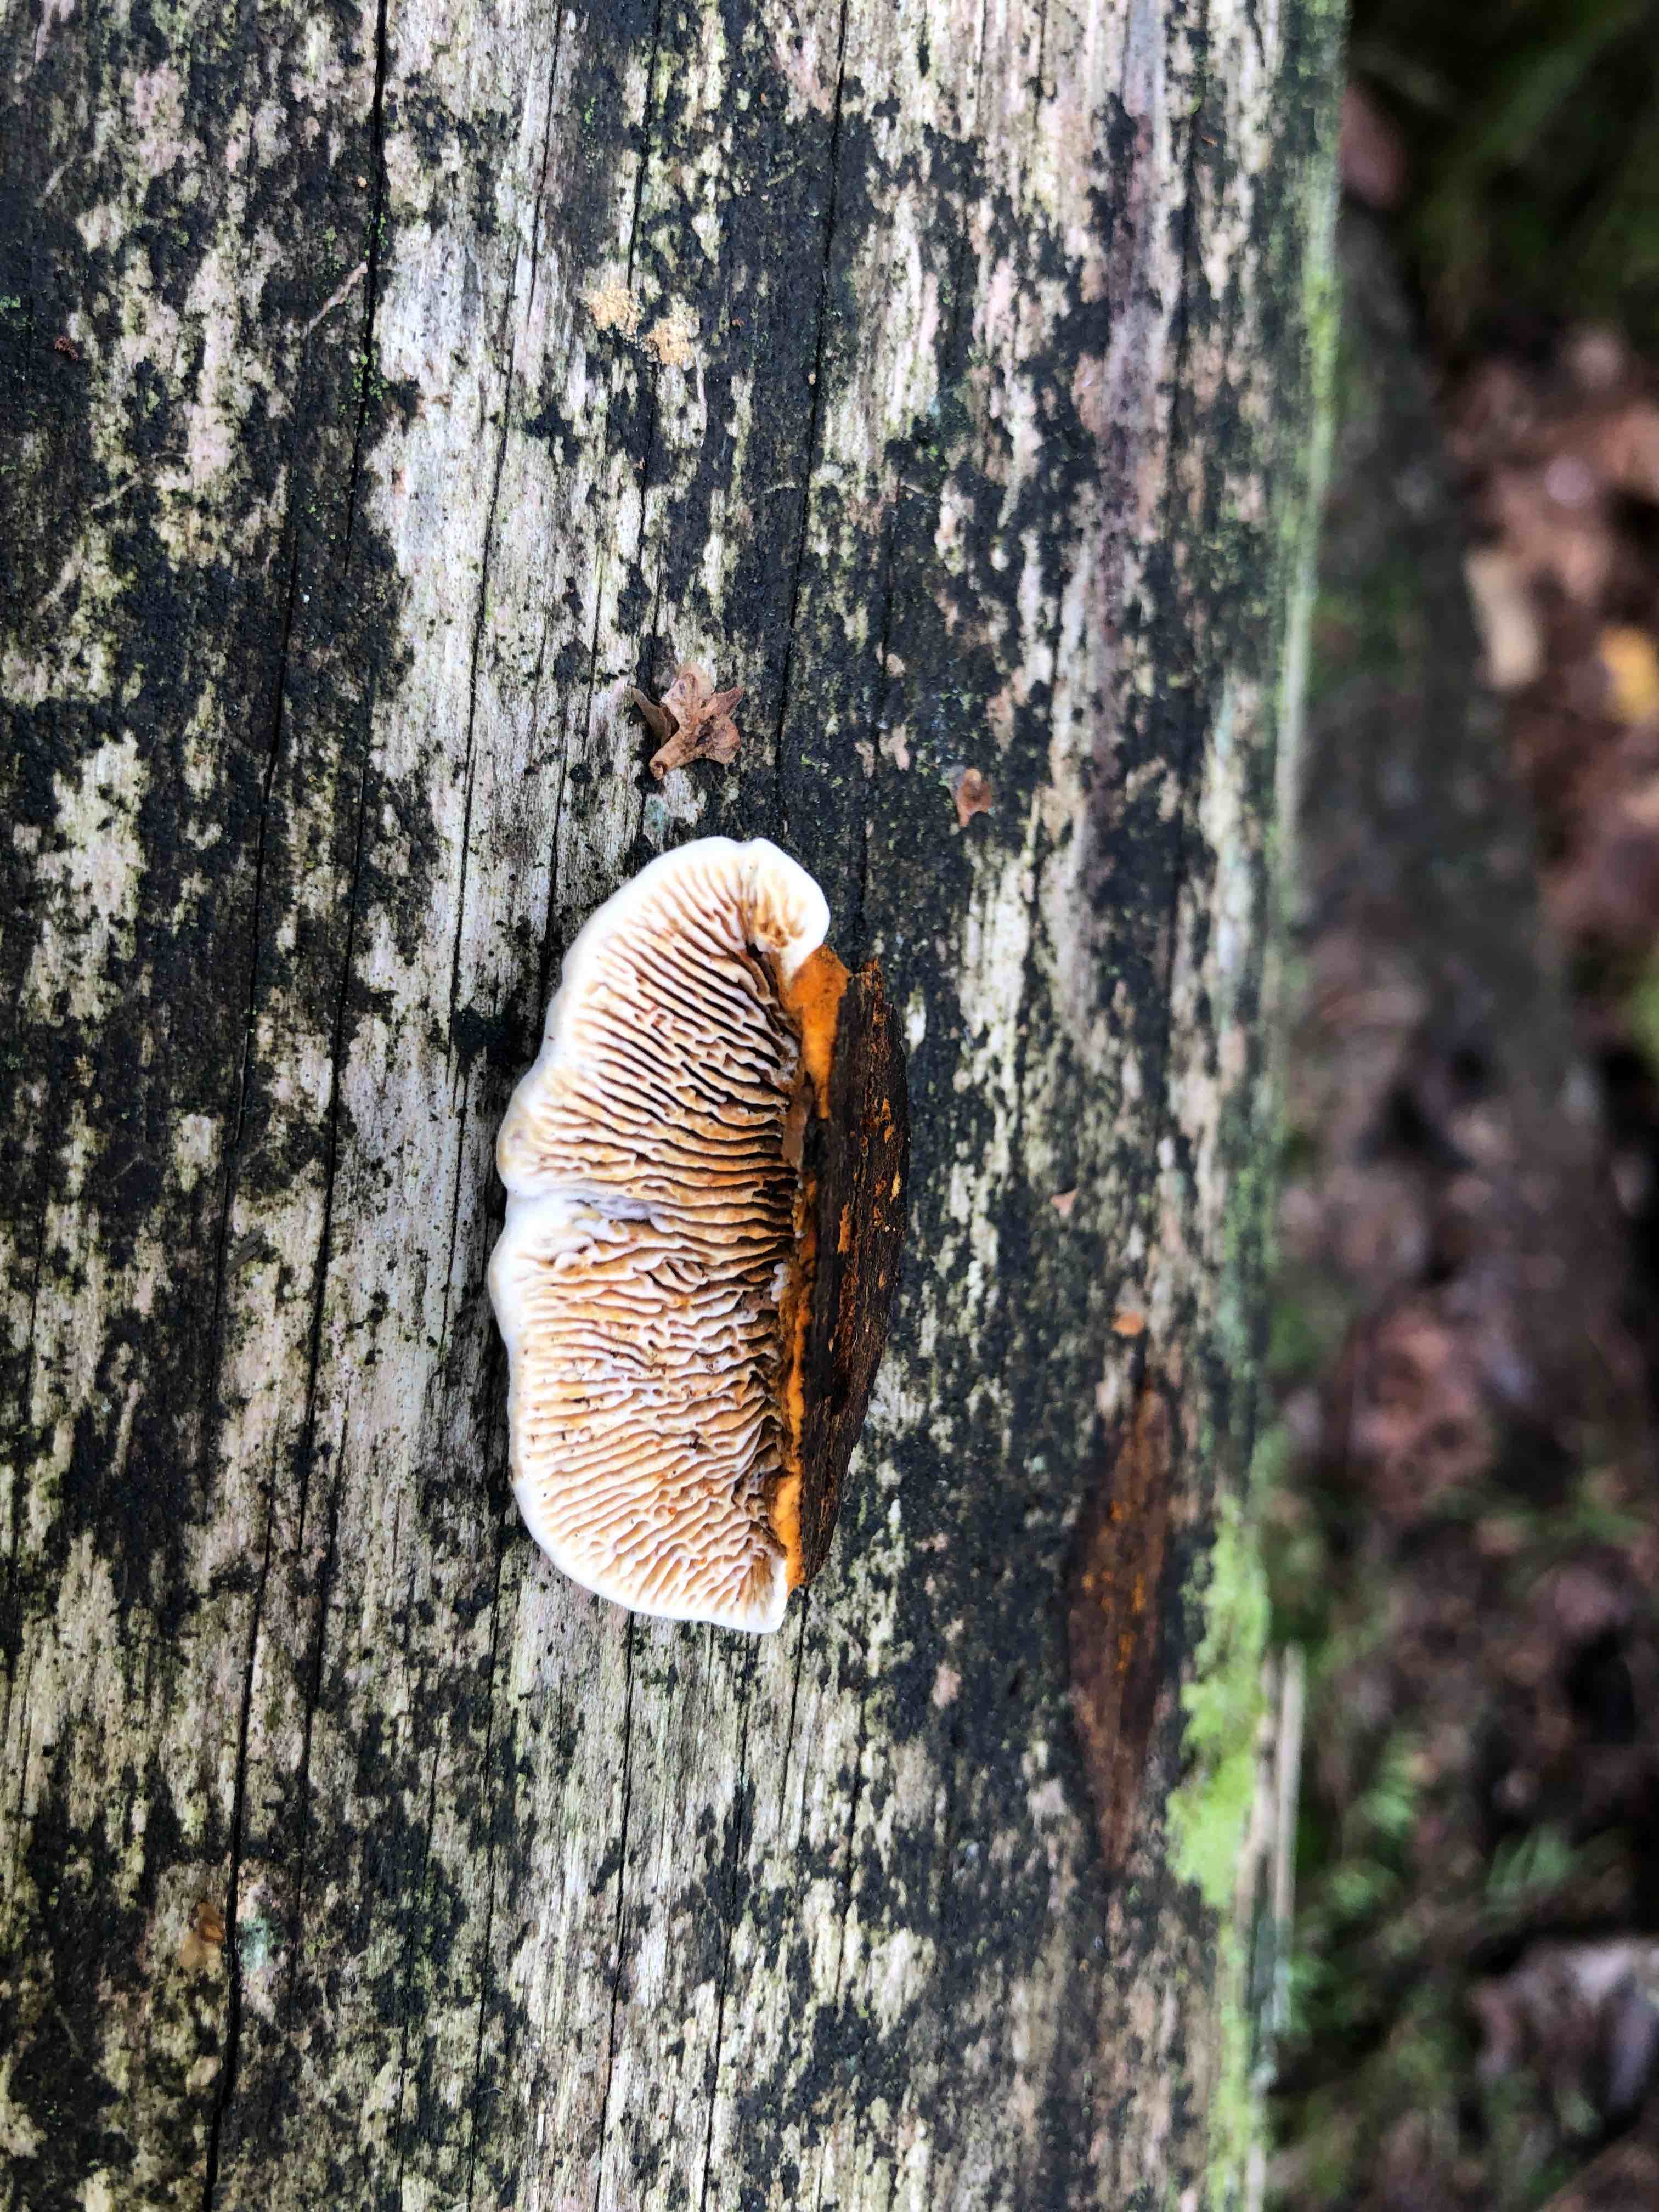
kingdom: Fungi
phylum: Basidiomycota
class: Agaricomycetes
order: Gloeophyllales
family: Gloeophyllaceae
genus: Gloeophyllum
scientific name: Gloeophyllum sepiarium
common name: fyrre-korkhat
